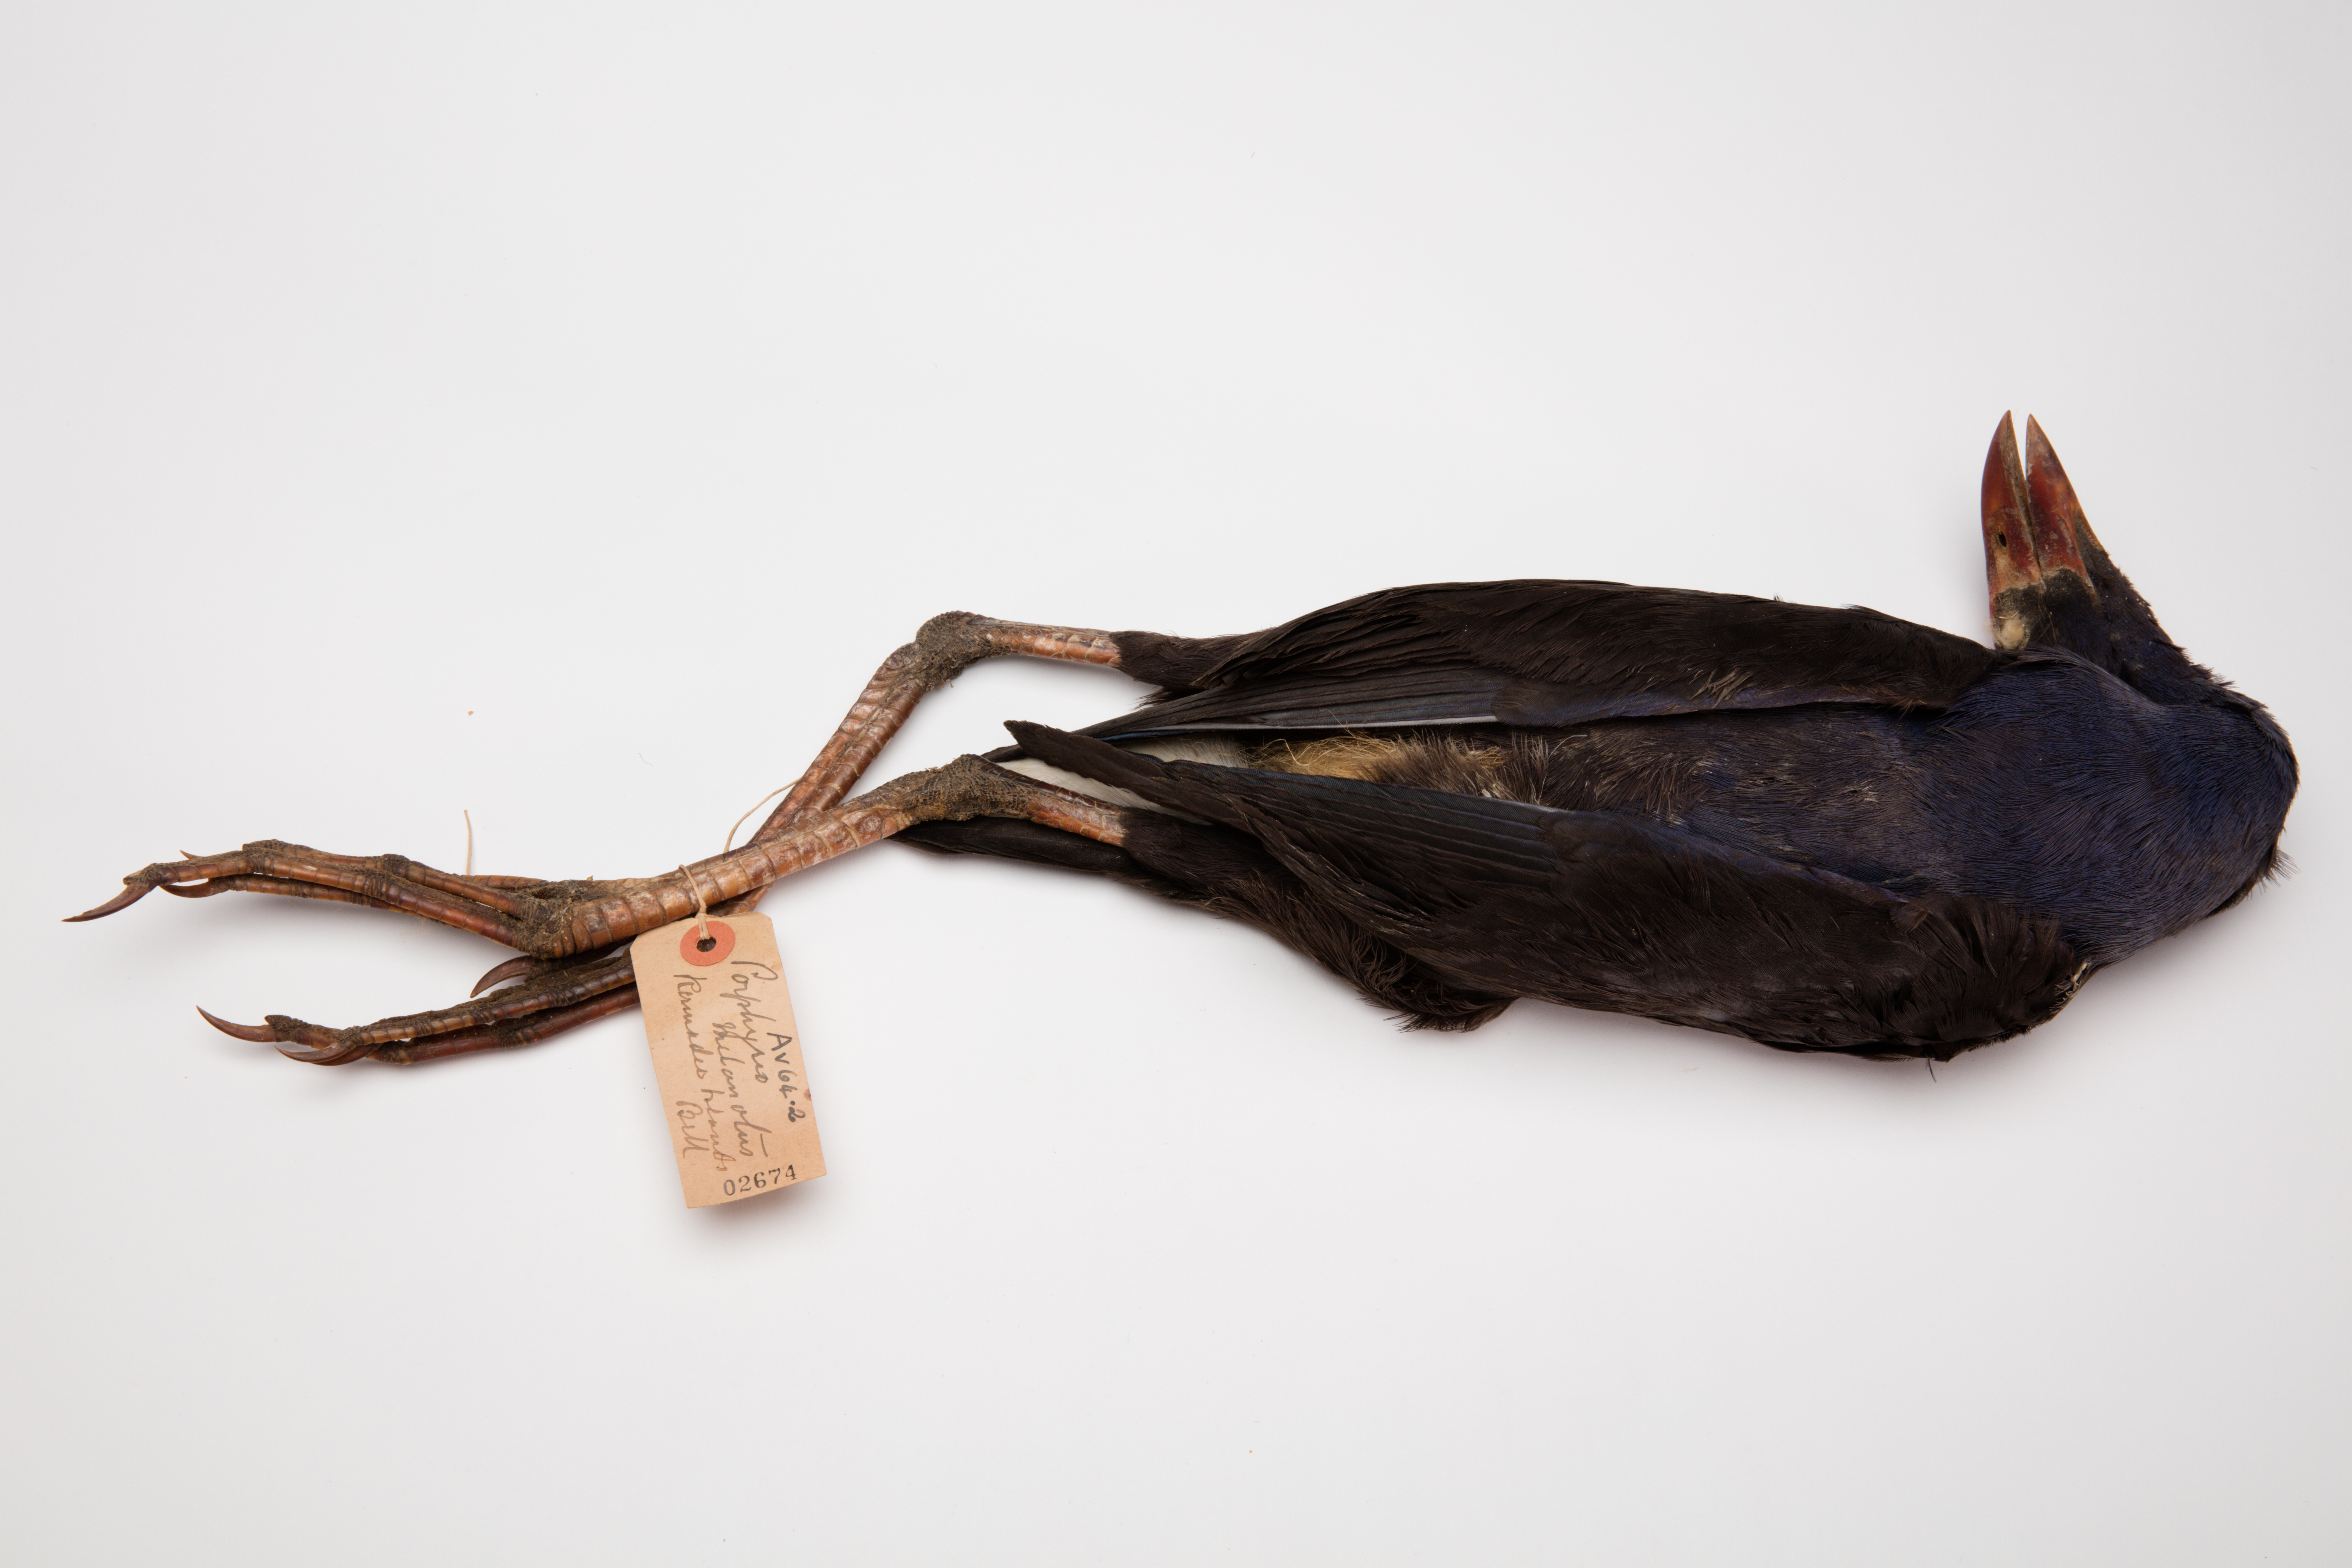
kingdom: Animalia
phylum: Chordata
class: Aves
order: Gruiformes
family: Rallidae
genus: Porphyrio
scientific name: Porphyrio melanotus
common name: Australasian swamphen
